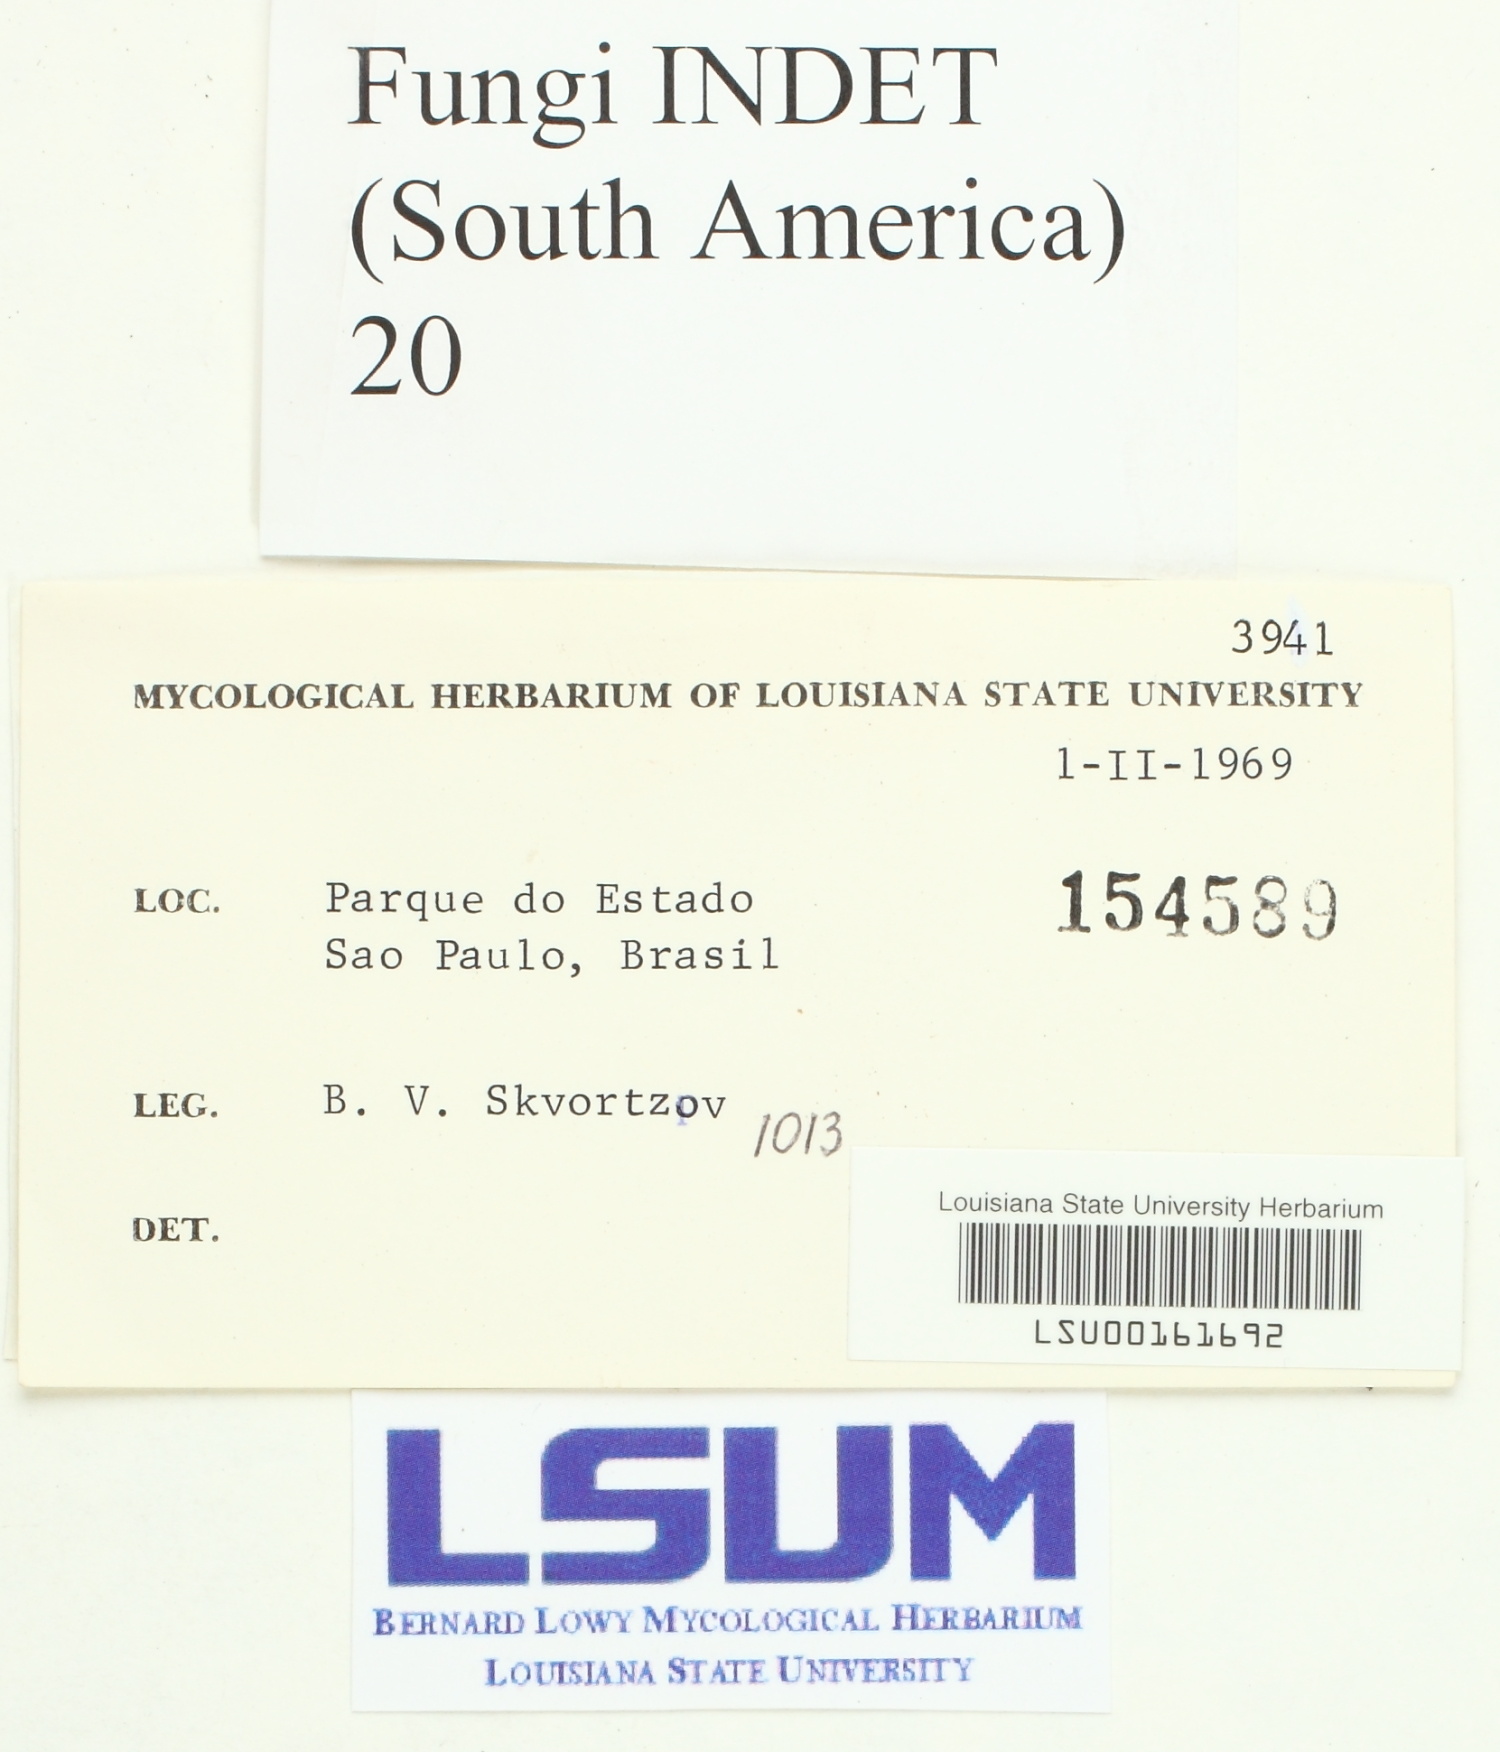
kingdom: Fungi
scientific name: Fungi
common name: Fungi
